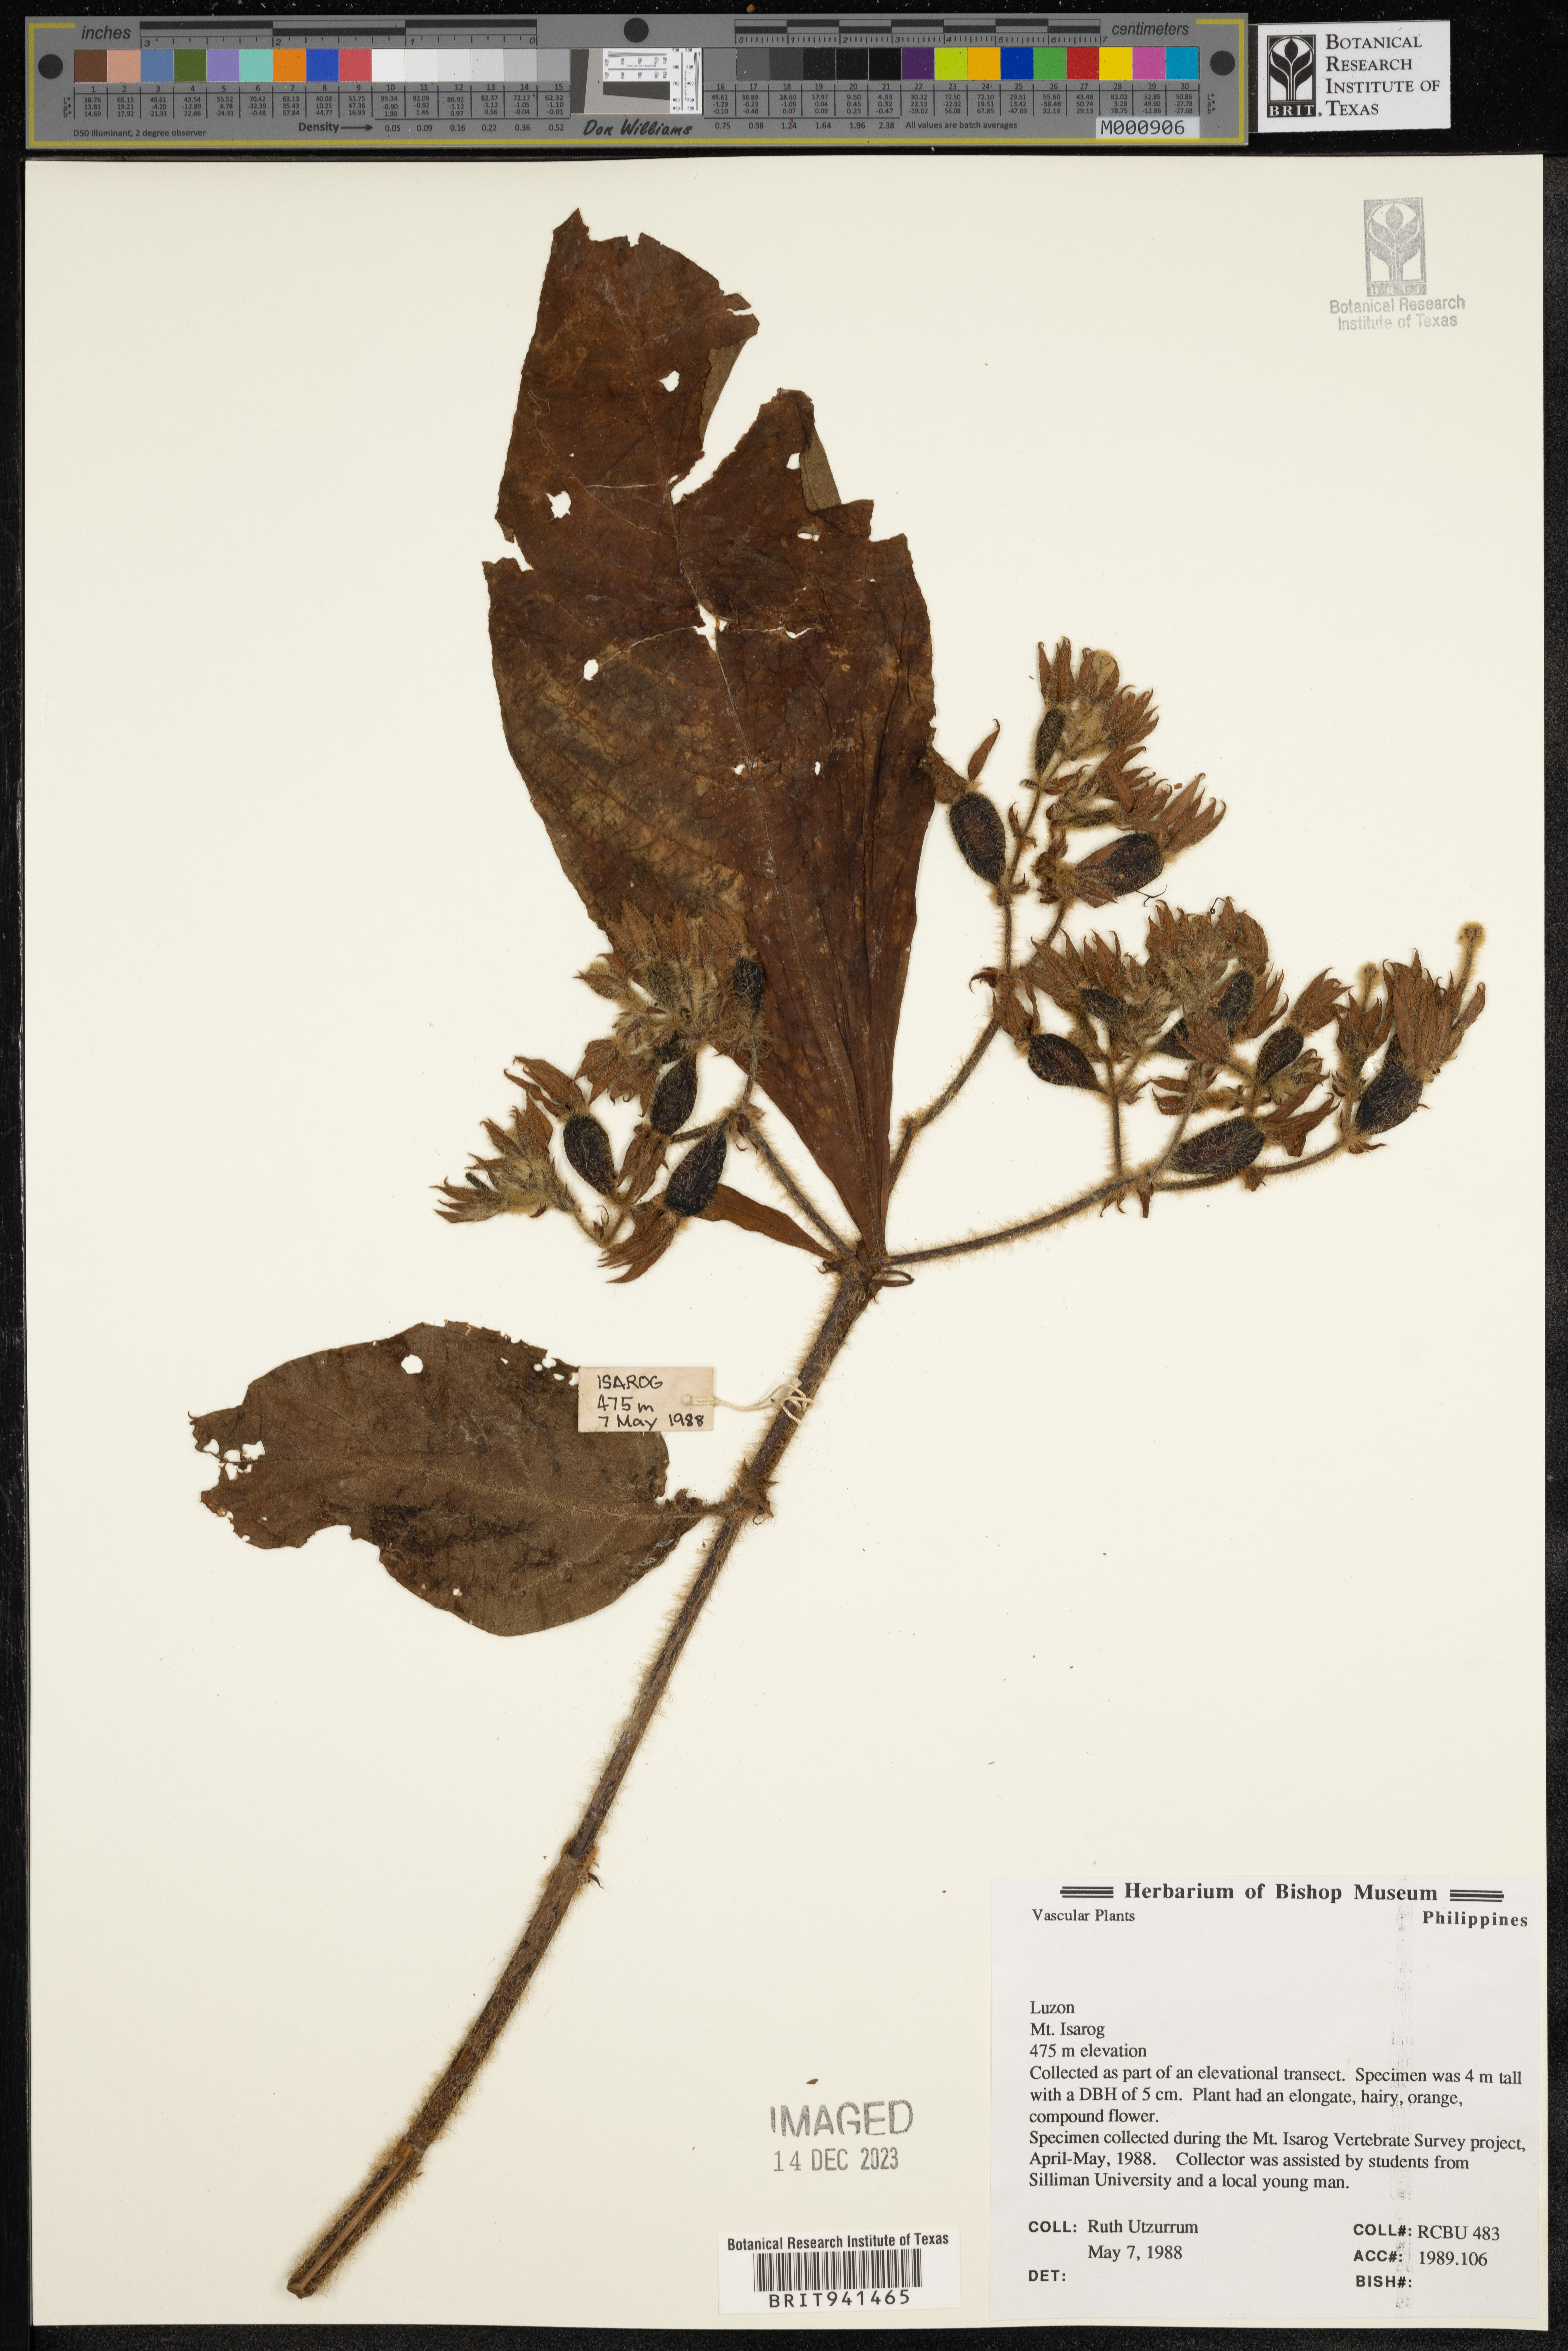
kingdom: Plantae
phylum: Tracheophyta
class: Magnoliopsida
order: Gentianales
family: Rubiaceae
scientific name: Rubiaceae
